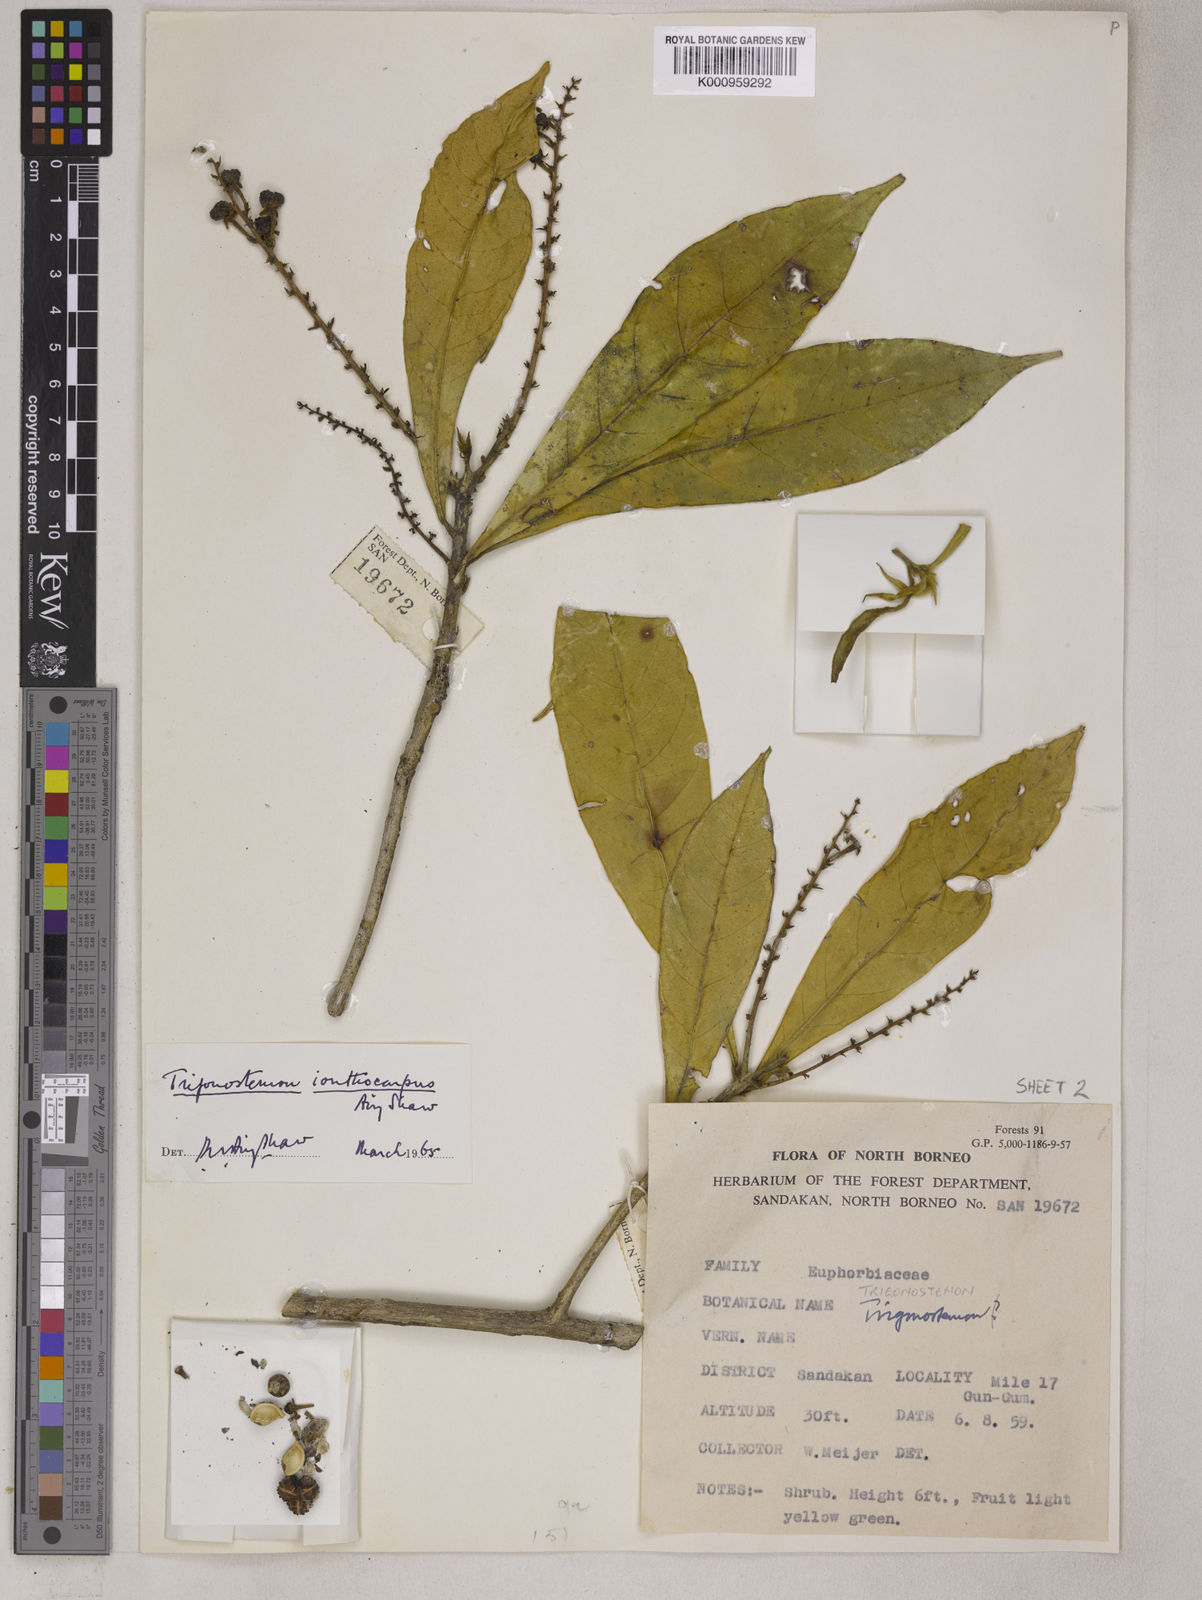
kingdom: Plantae
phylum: Tracheophyta
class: Magnoliopsida
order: Malpighiales
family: Euphorbiaceae
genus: Trigonostemon
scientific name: Trigonostemon longifolius
